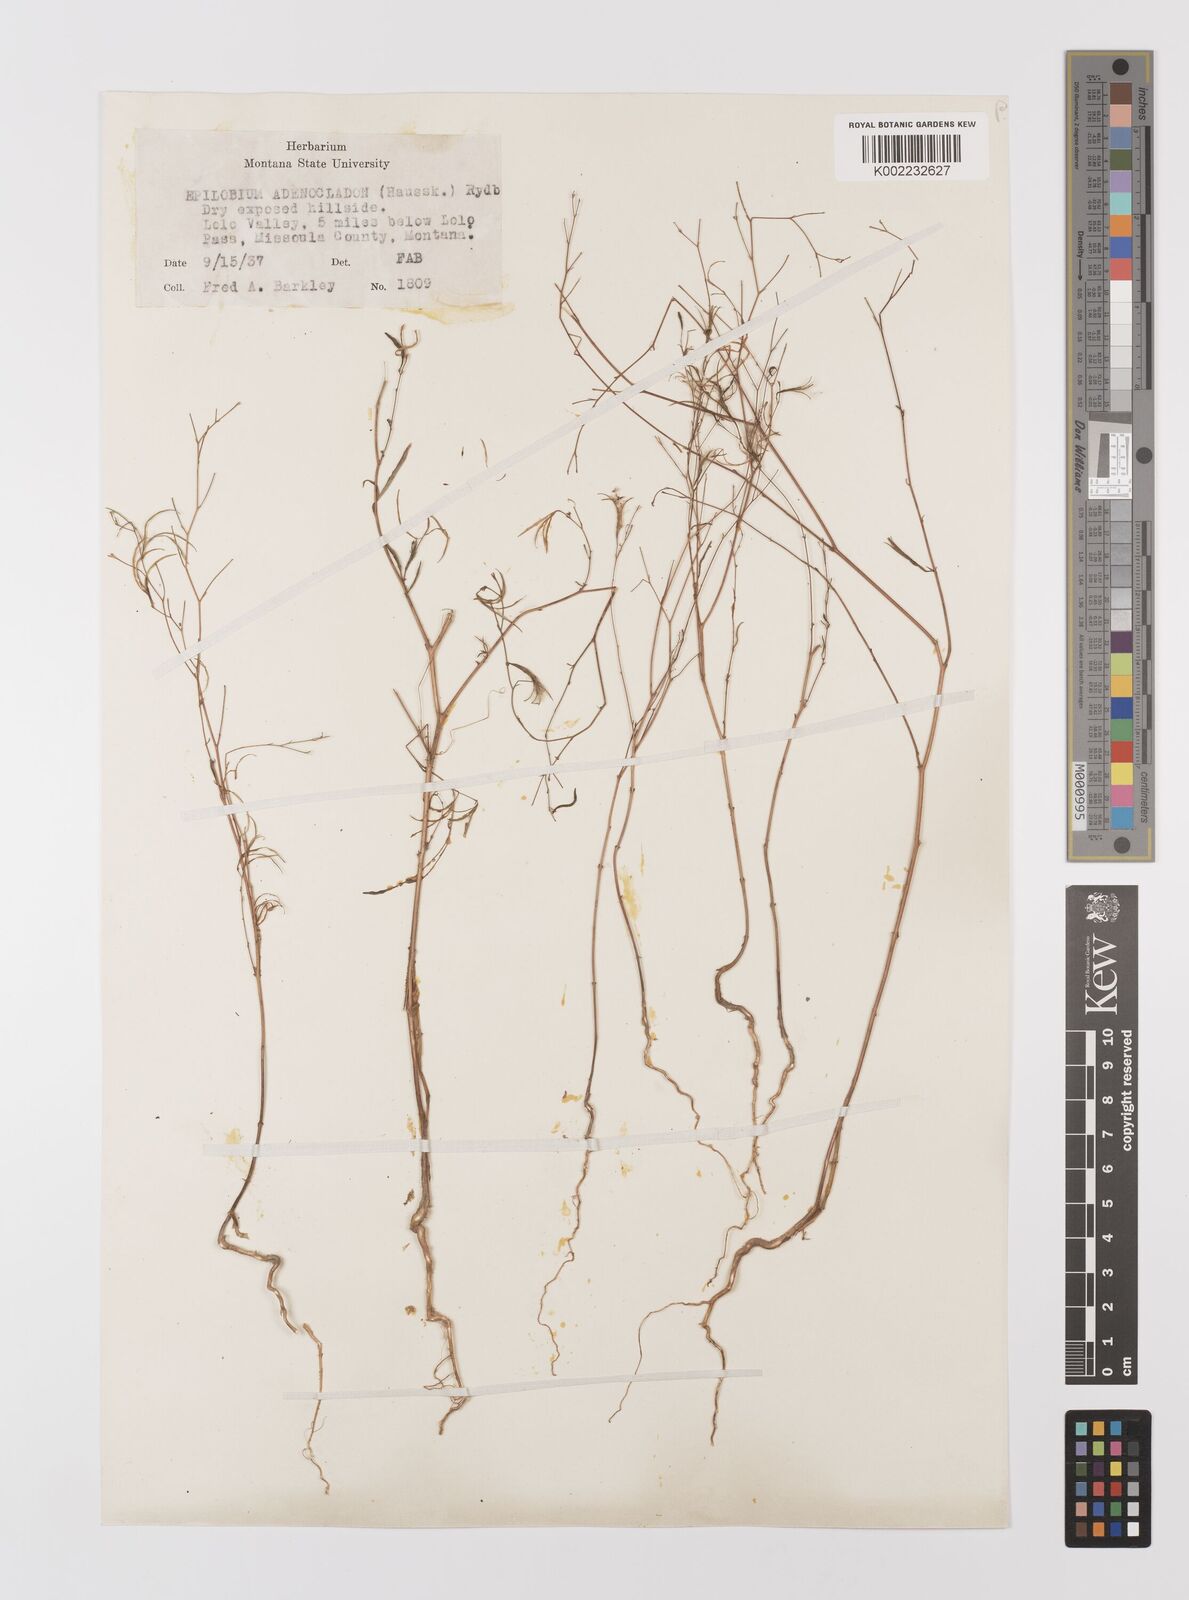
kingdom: Plantae
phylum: Tracheophyta
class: Magnoliopsida
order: Myrtales
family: Onagraceae
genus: Epilobium
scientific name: Epilobium ciliatum
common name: American willowherb
